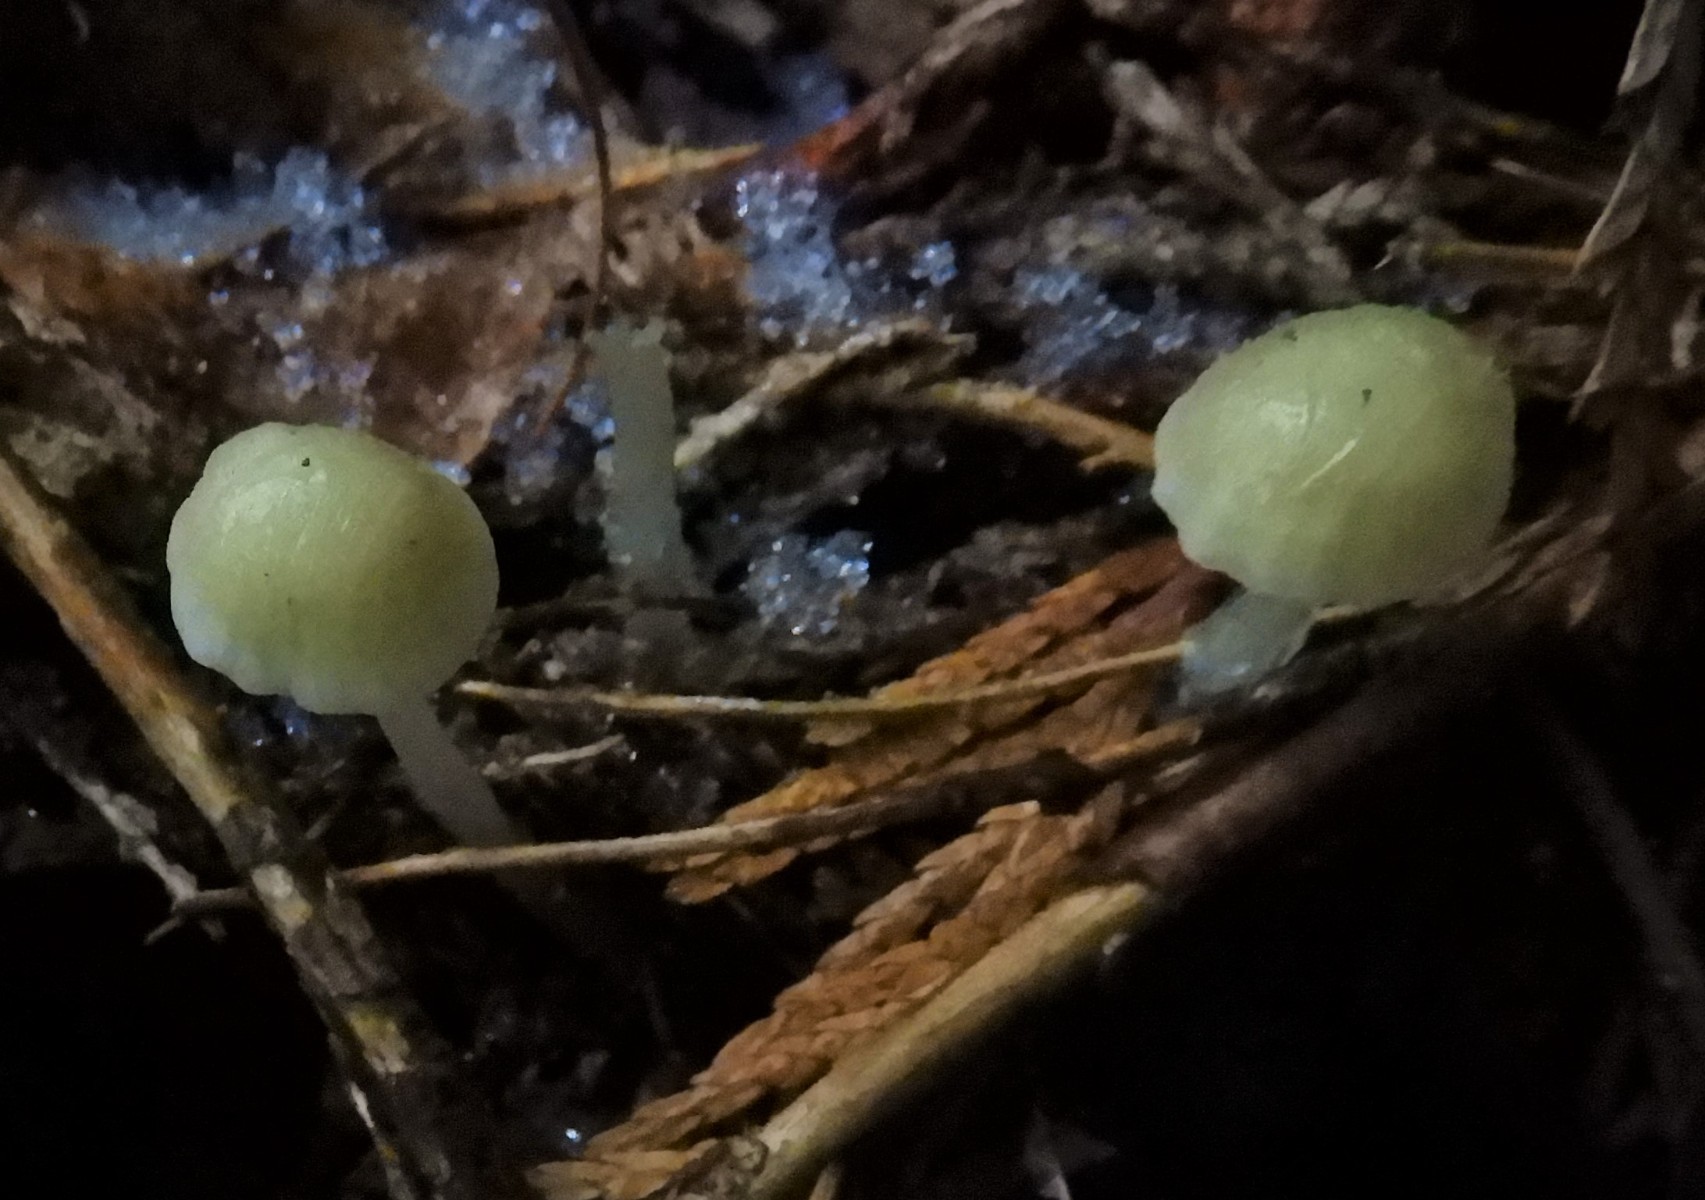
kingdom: Fungi
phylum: Basidiomycota
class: Agaricomycetes
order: Agaricales
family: Hygrophoraceae
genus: Chrysomphalina
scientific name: Chrysomphalina grossula
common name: stød-gyldenblad
